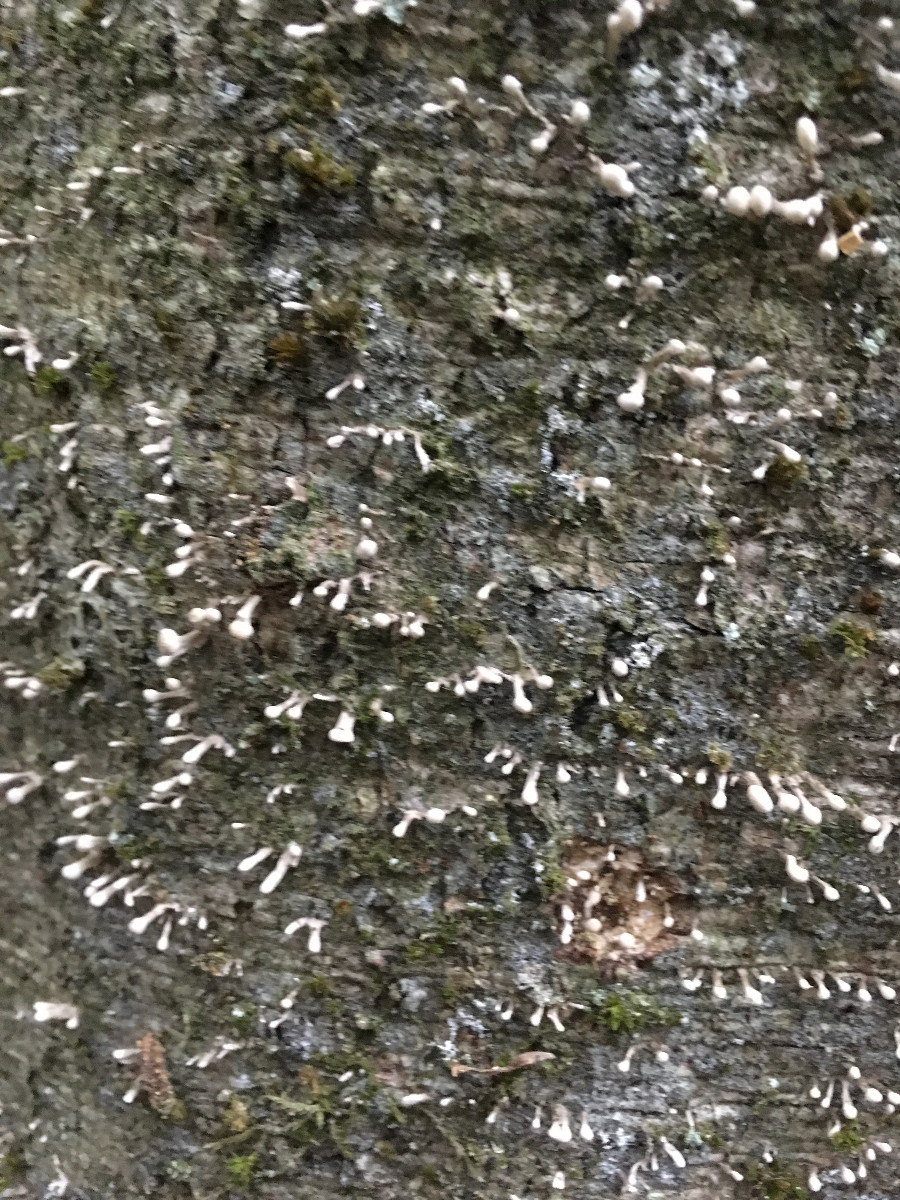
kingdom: Fungi
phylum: Basidiomycota
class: Atractiellomycetes
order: Atractiellales
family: Phleogenaceae
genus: Phleogena
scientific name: Phleogena faginea
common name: pudderkølle
